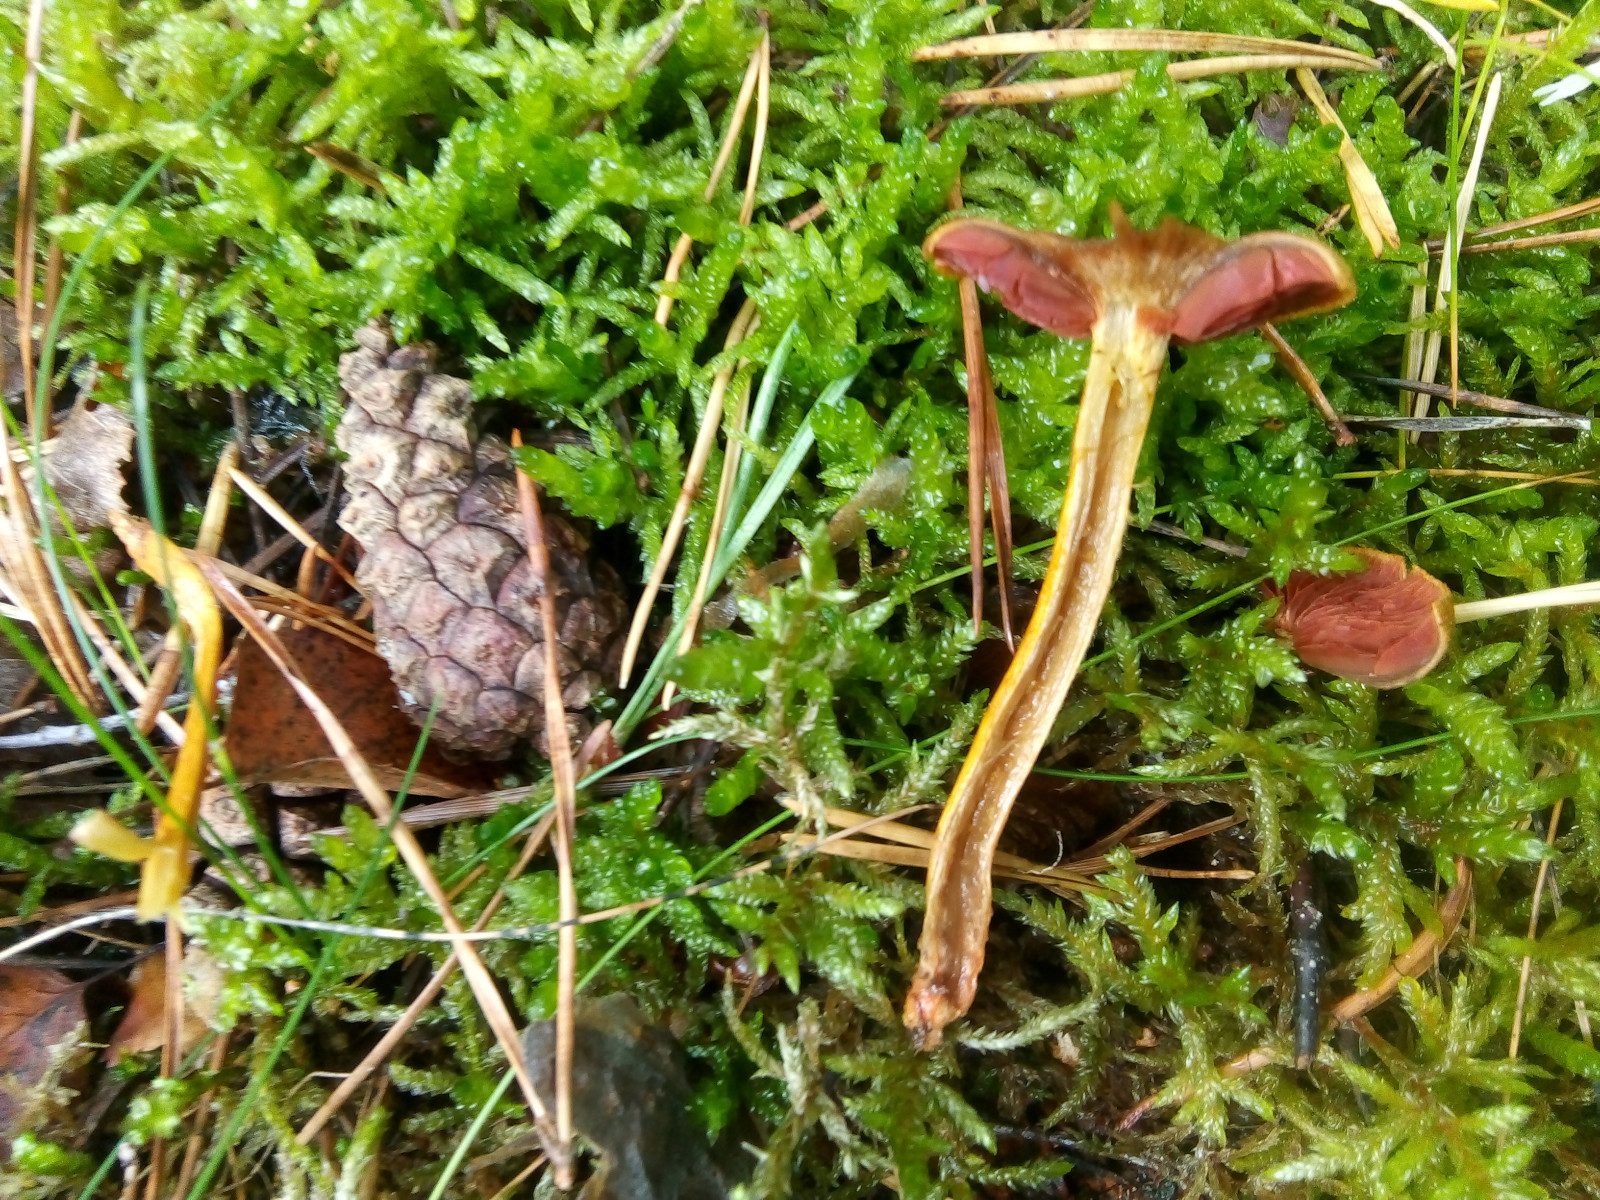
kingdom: Fungi
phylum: Basidiomycota
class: Agaricomycetes
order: Agaricales
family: Cortinariaceae
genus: Cortinarius
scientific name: Cortinarius
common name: cinnoberbladet slørhat
